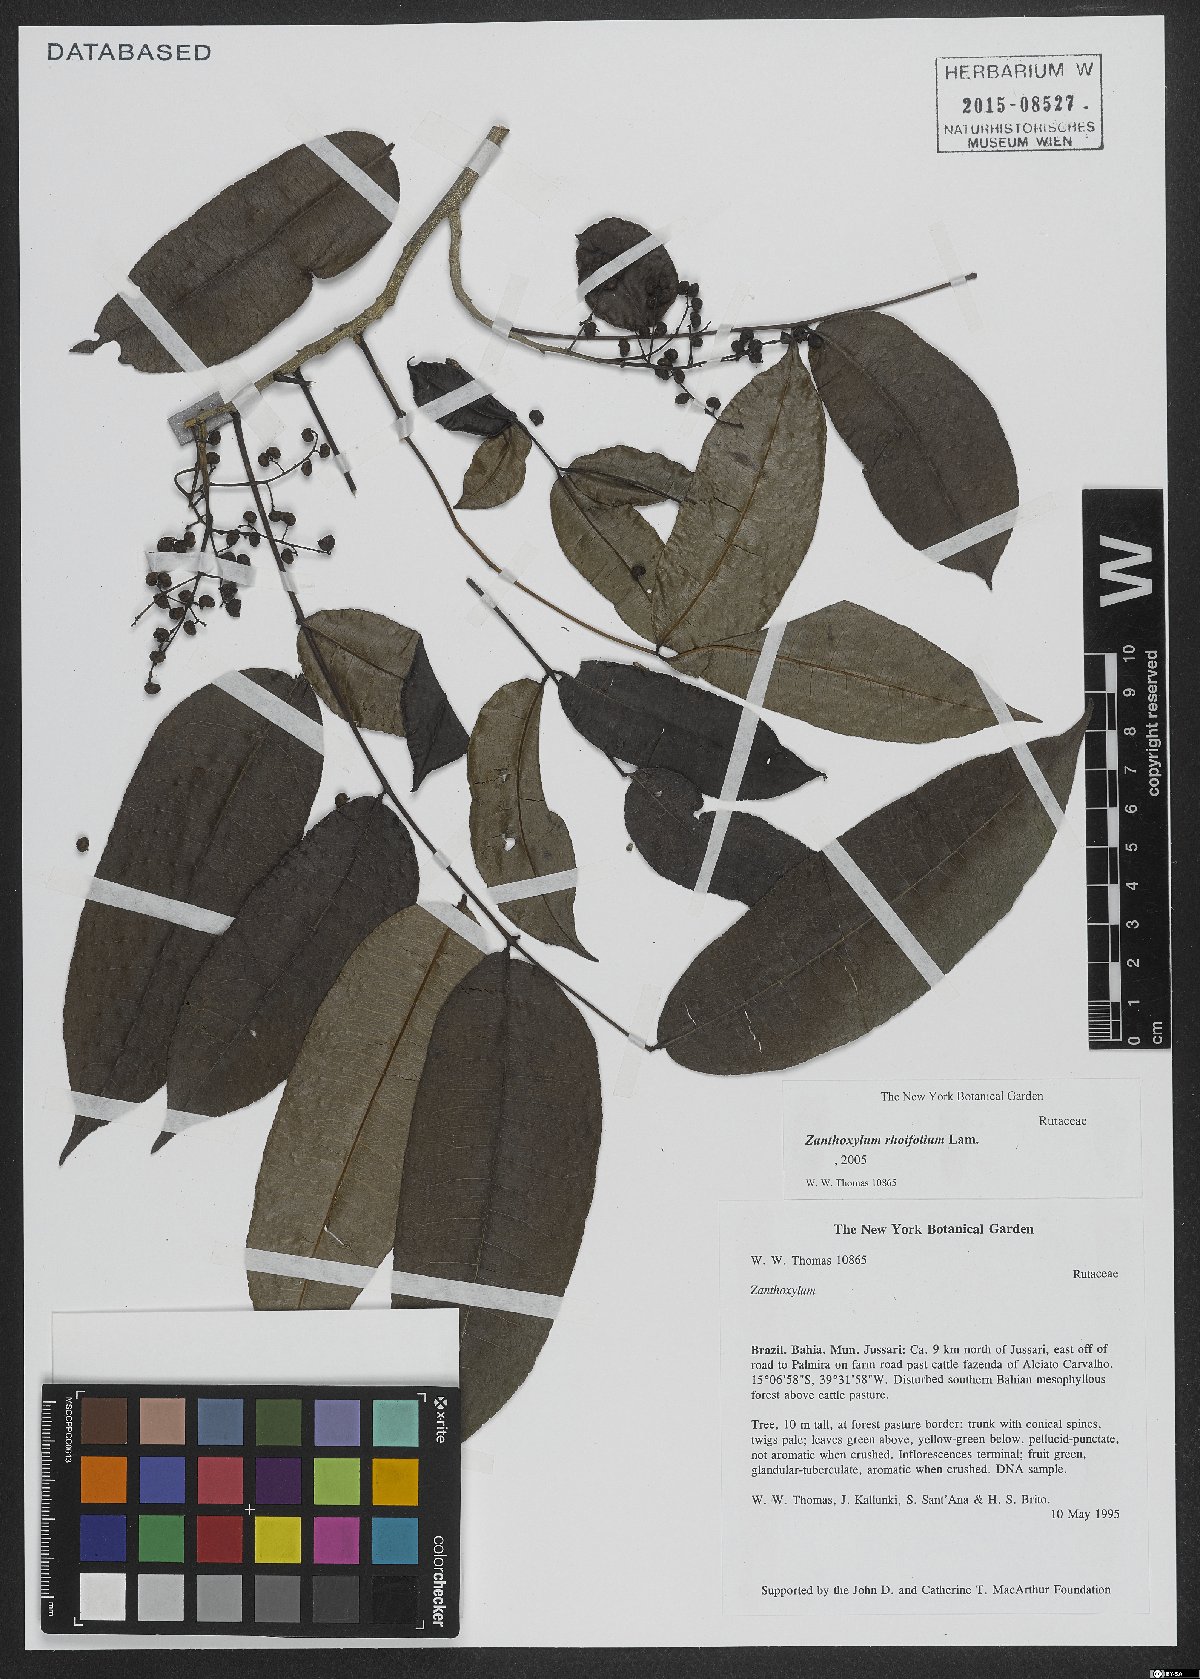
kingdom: Plantae
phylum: Tracheophyta
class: Magnoliopsida
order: Sapindales
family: Rutaceae
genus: Zanthoxylum
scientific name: Zanthoxylum rhoifolium
